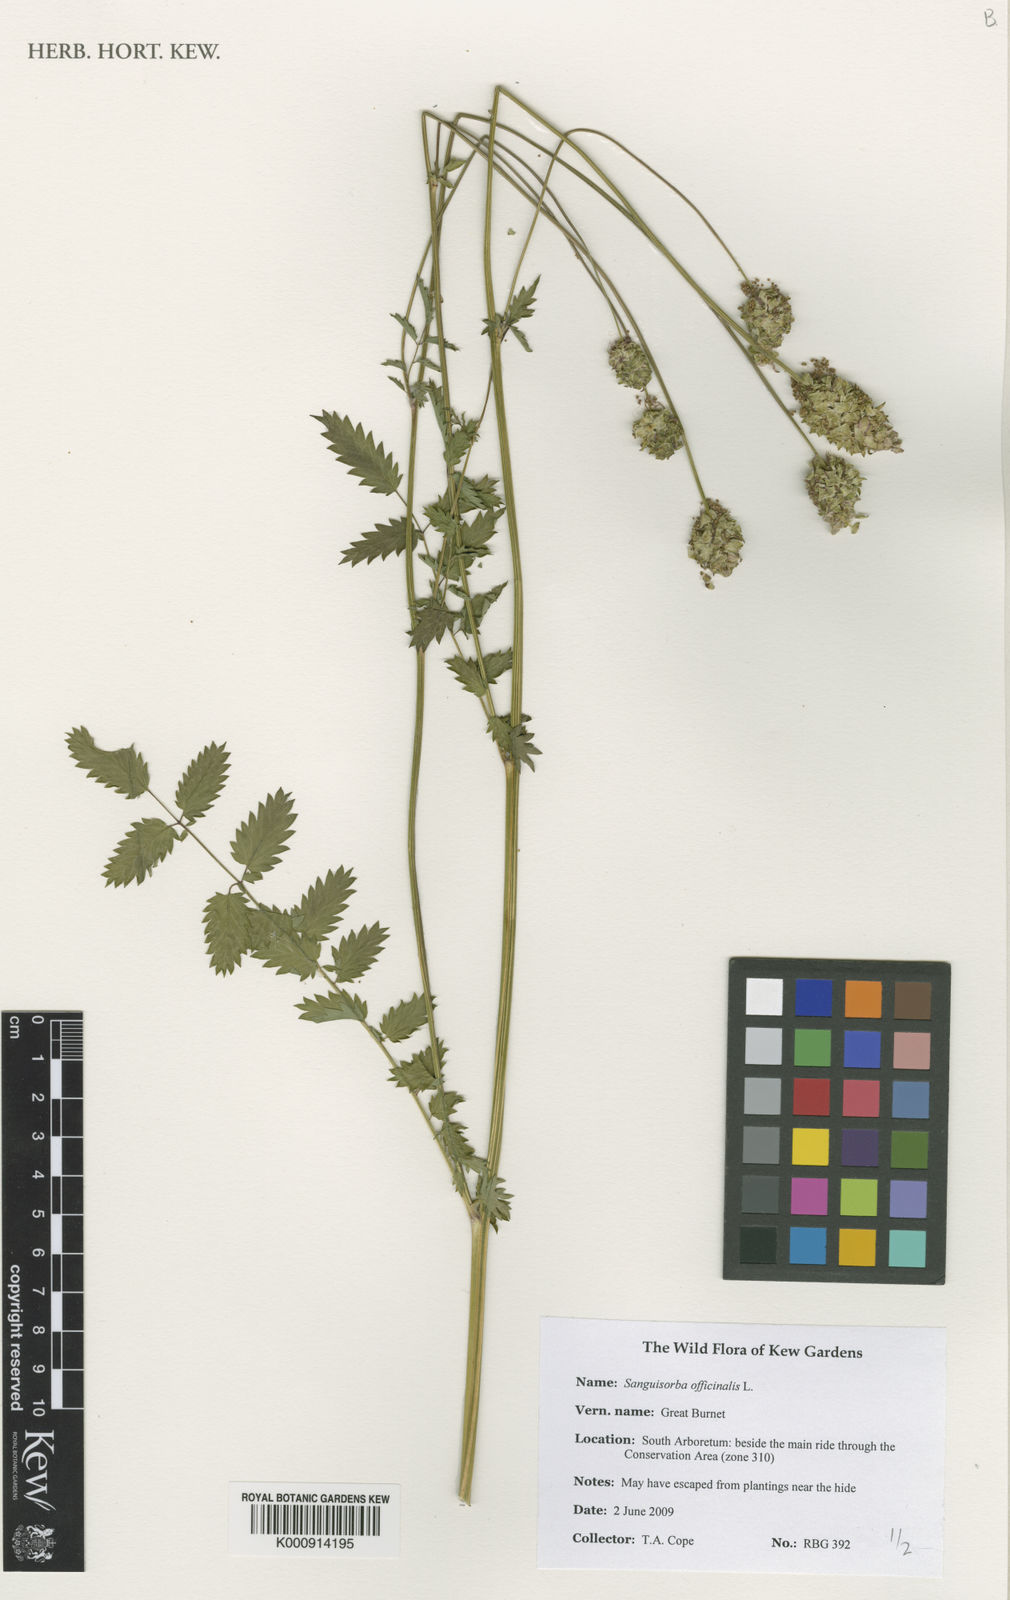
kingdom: Plantae
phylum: Tracheophyta
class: Magnoliopsida
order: Rosales
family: Rosaceae
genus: Sanguisorba
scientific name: Sanguisorba officinalis
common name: Great burnet
